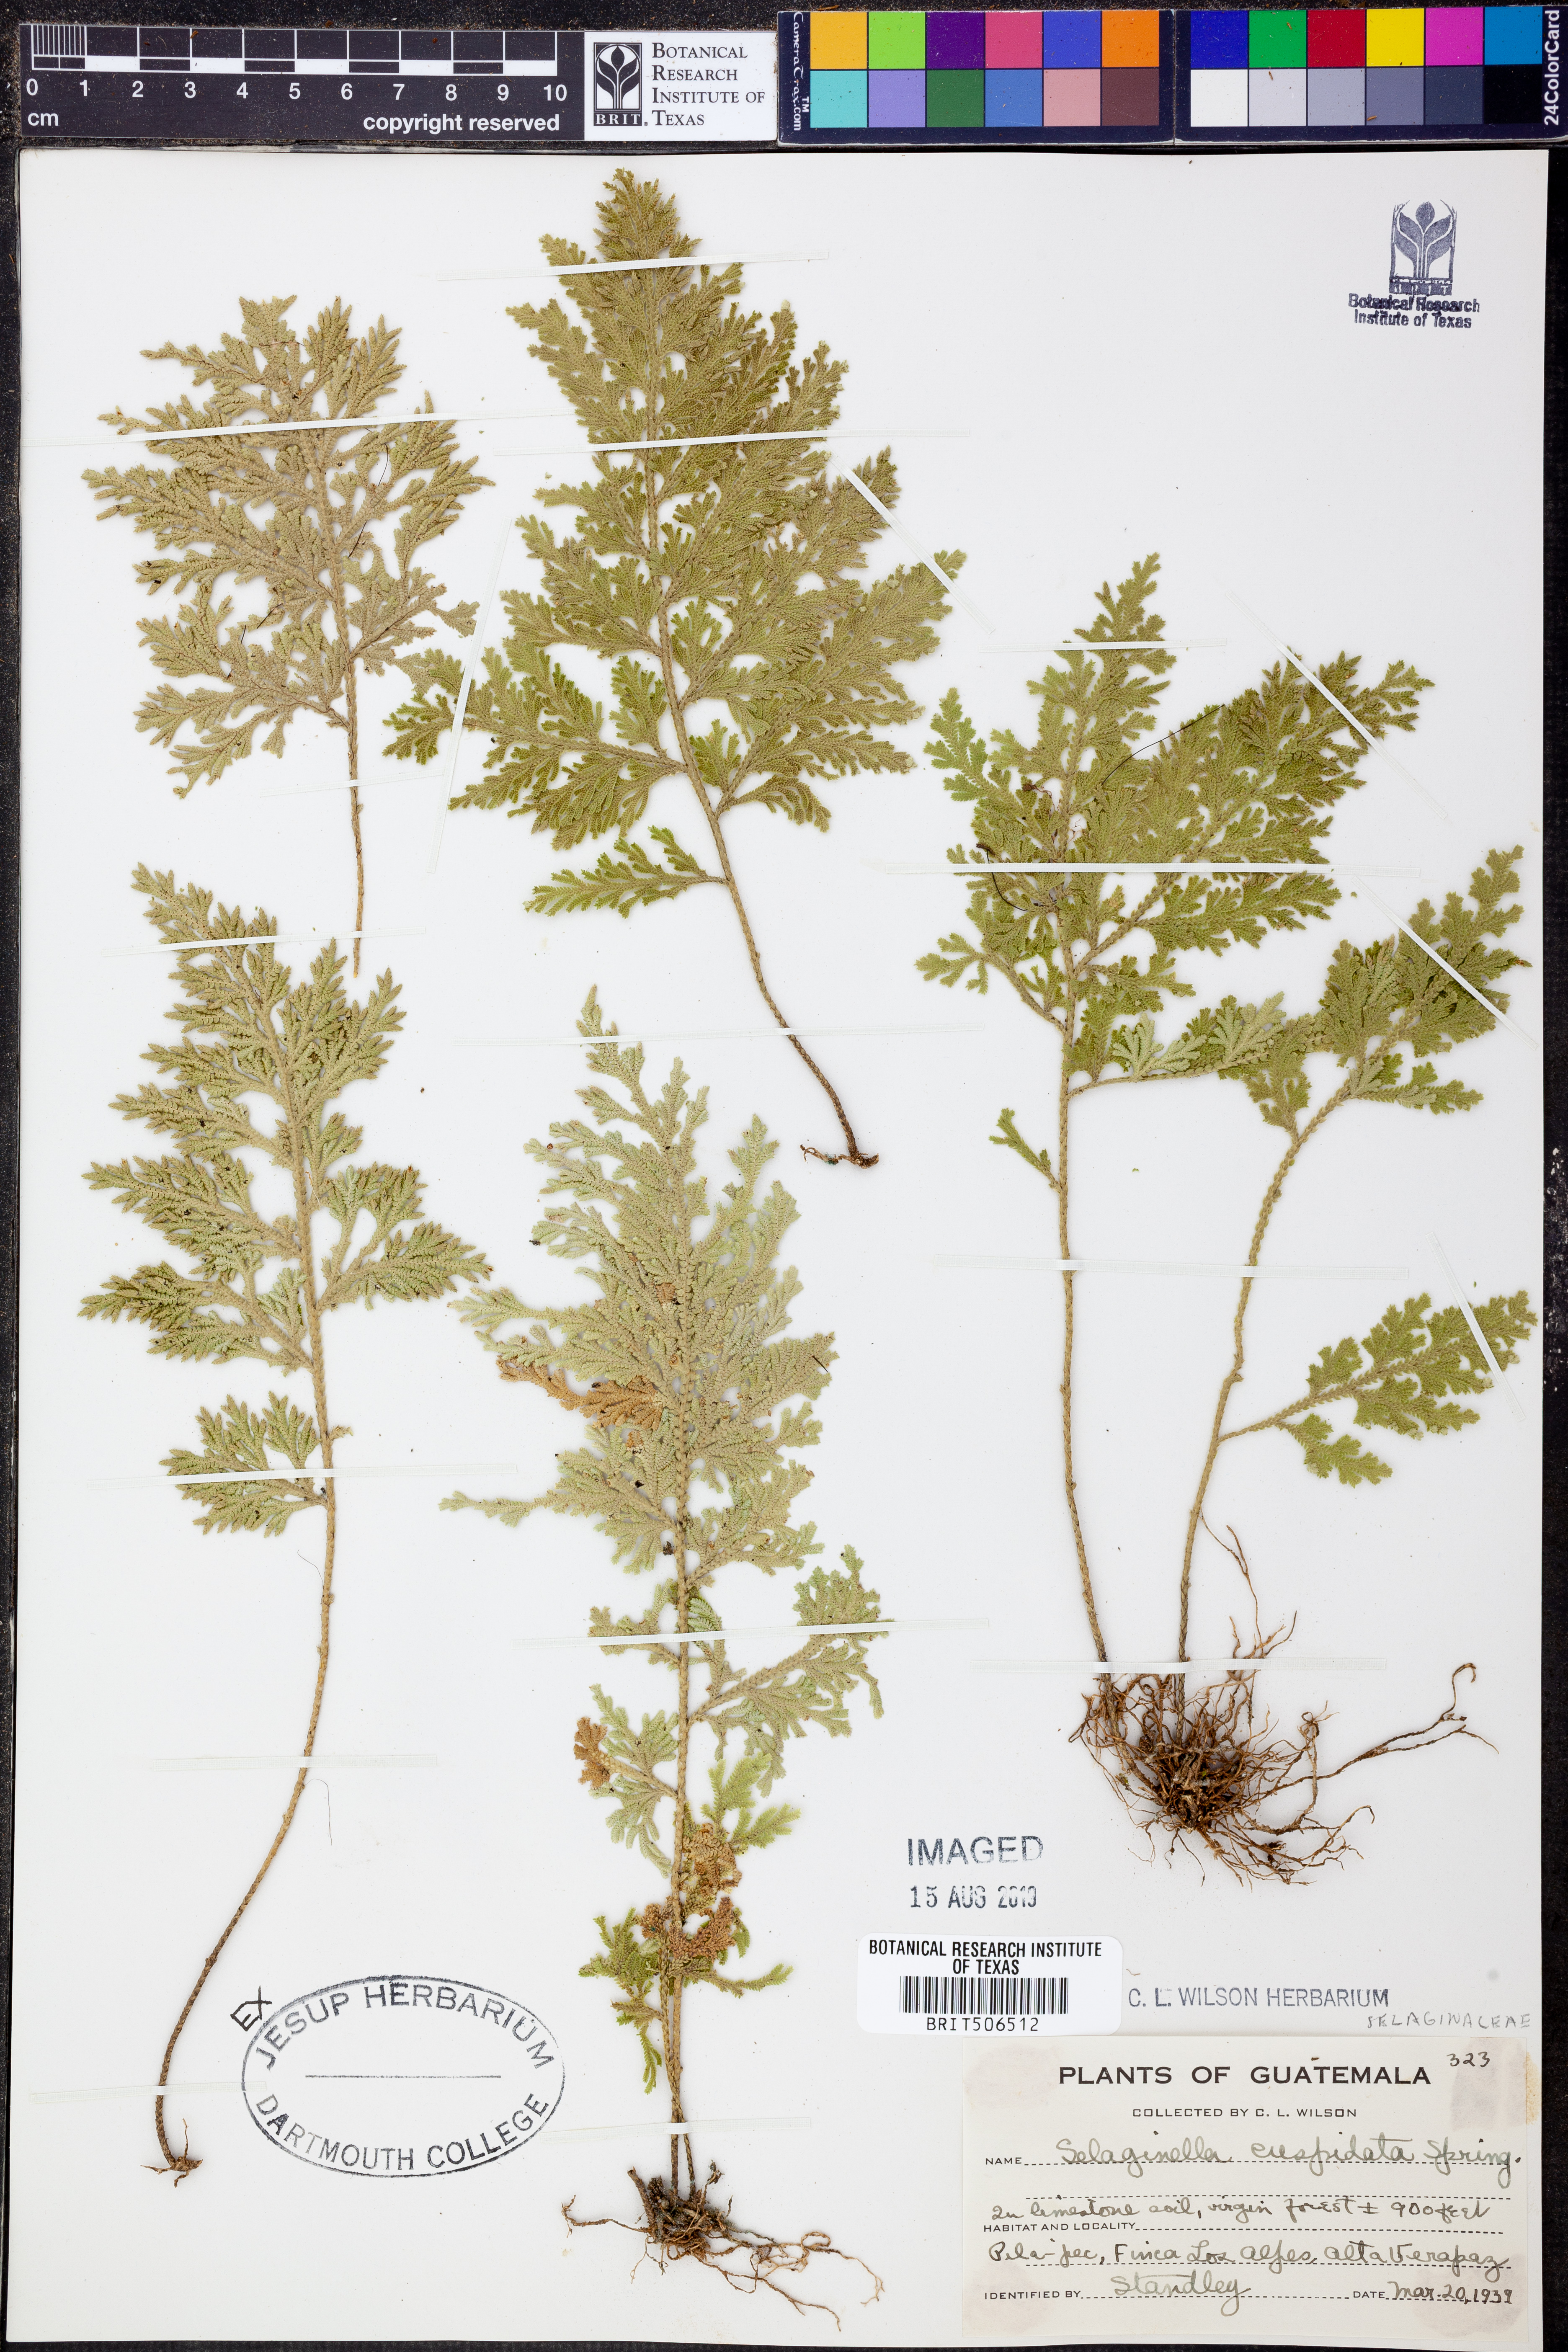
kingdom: Plantae
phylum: Tracheophyta
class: Lycopodiopsida
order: Selaginellales
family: Selaginellaceae
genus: Selaginella
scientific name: Selaginella pallescens
